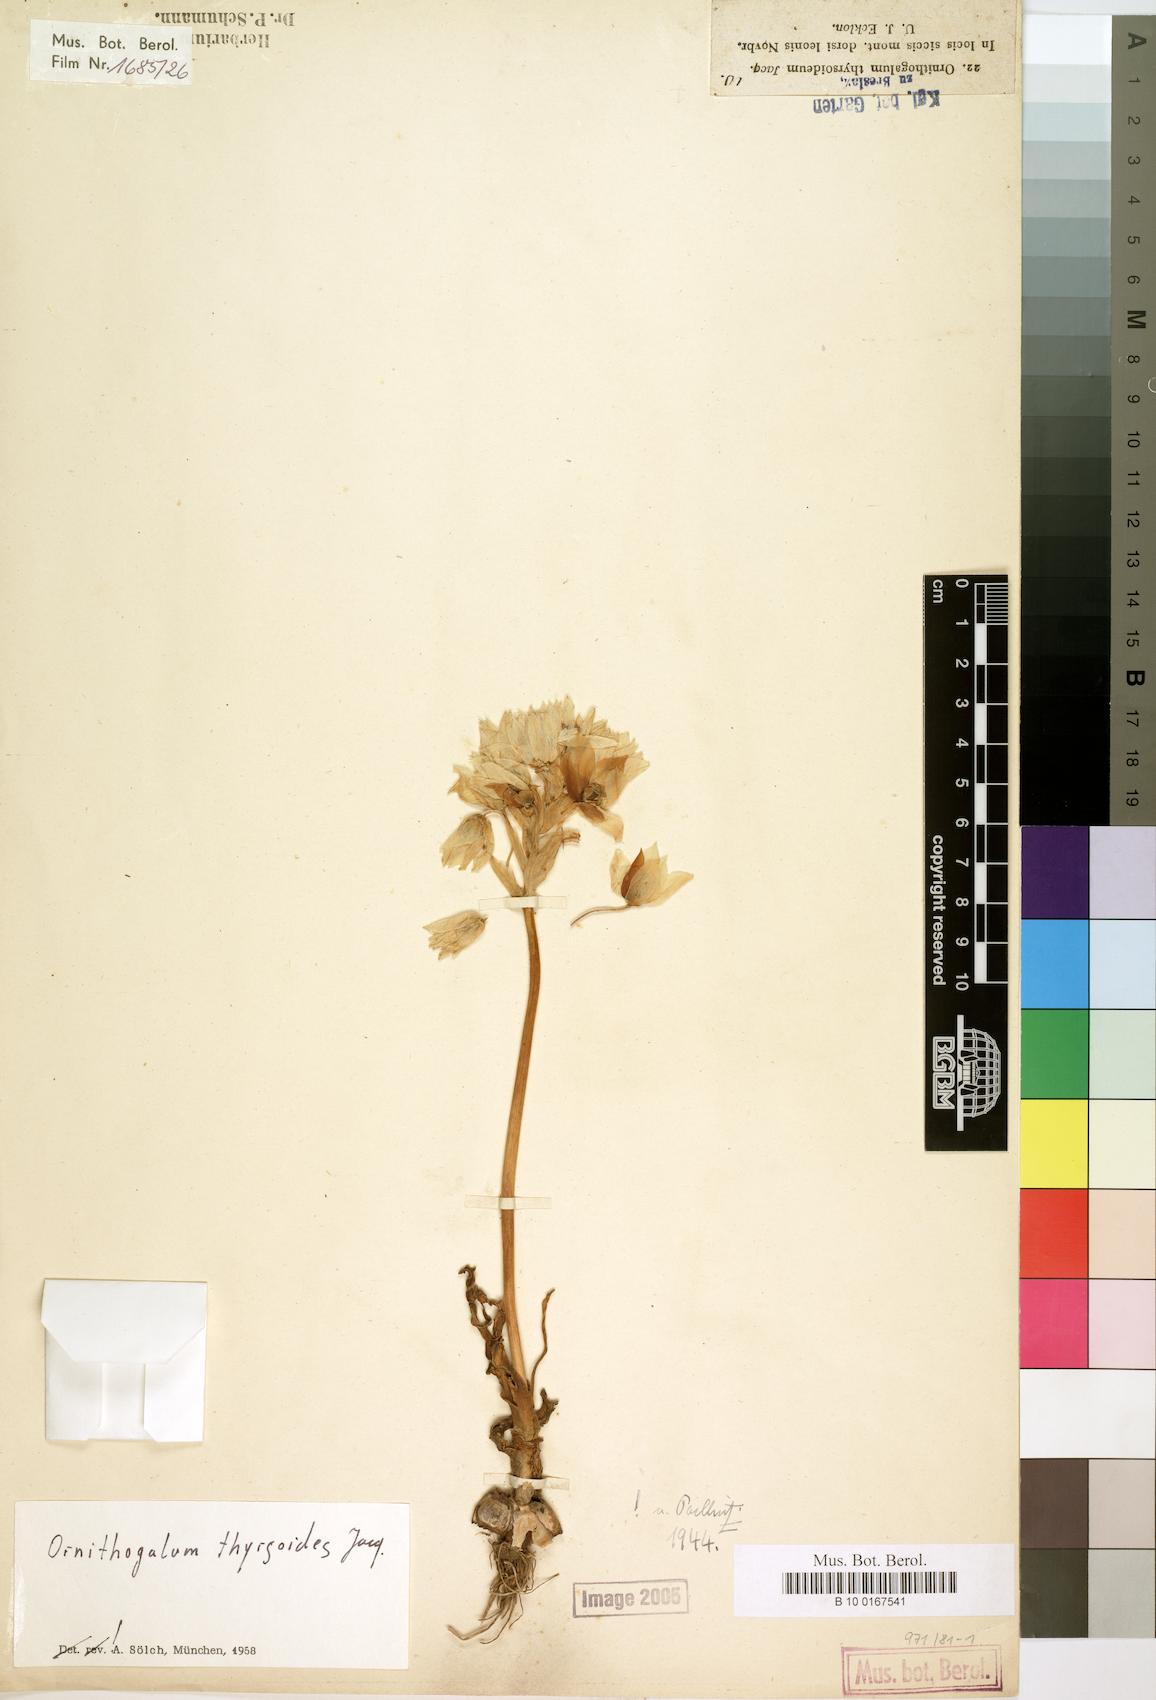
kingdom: Plantae
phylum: Tracheophyta
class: Liliopsida
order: Asparagales
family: Asparagaceae
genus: Ornithogalum
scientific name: Ornithogalum thyrsoides
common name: Chincherinchee
